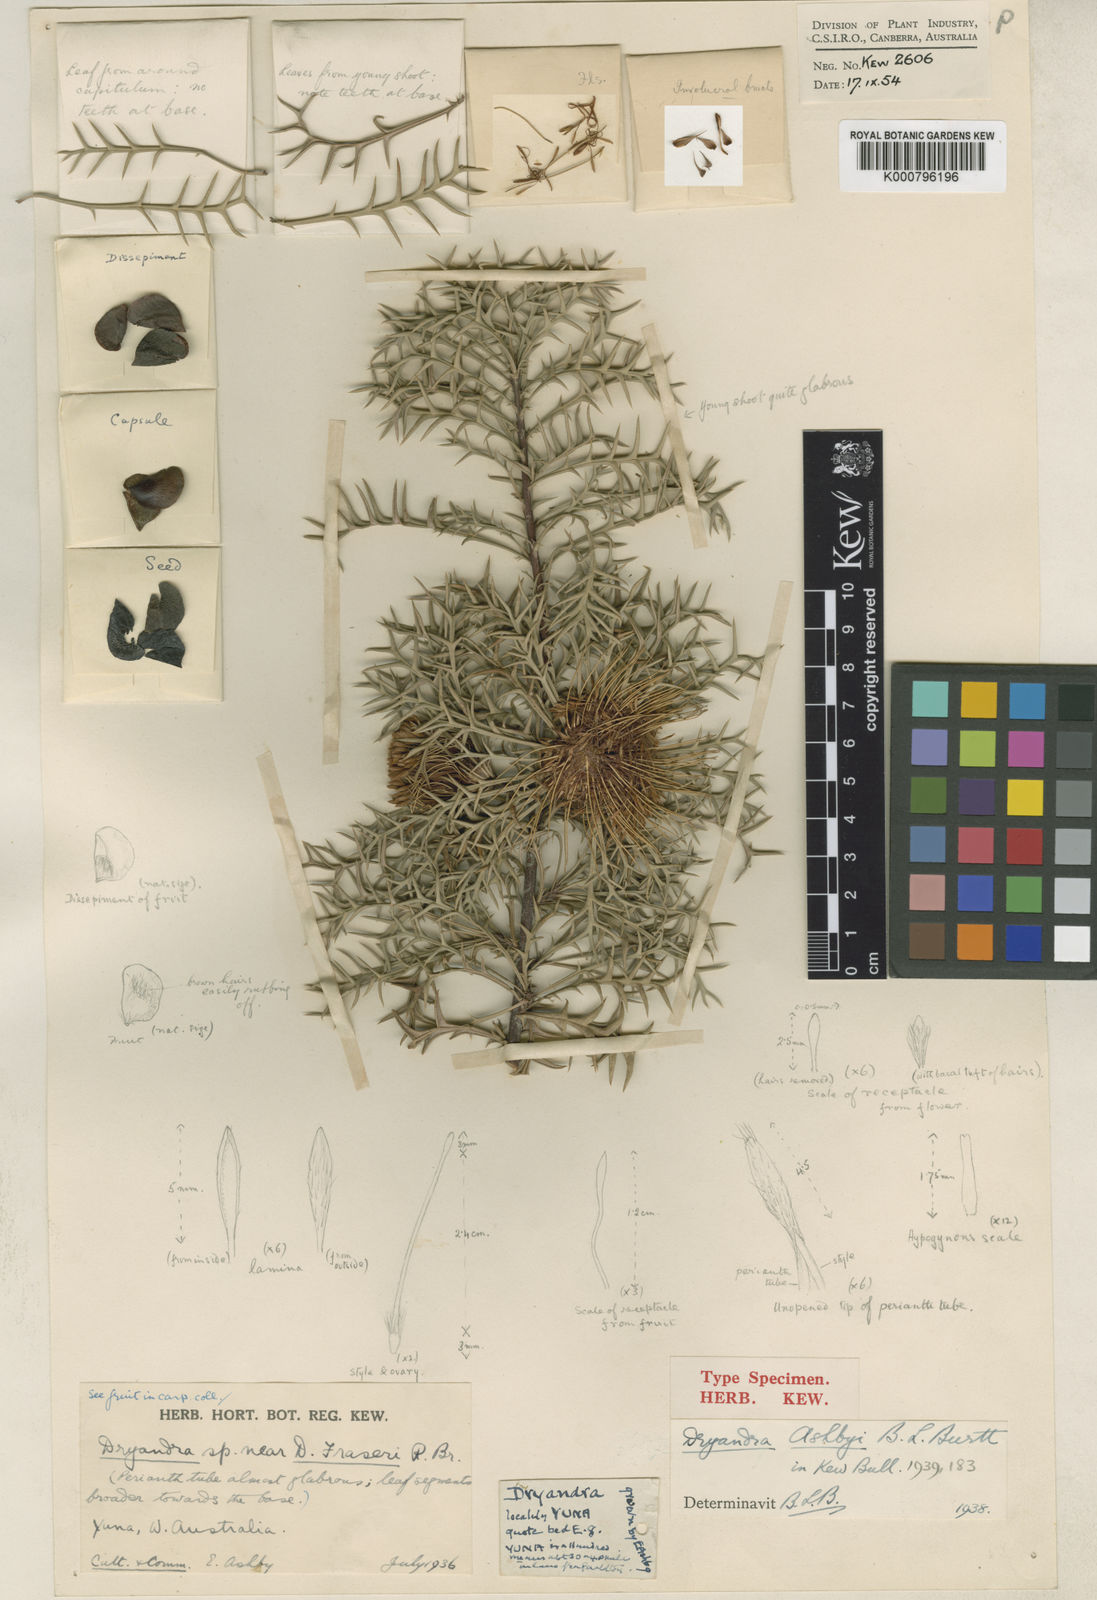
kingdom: Plantae
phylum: Tracheophyta
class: Magnoliopsida
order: Proteales
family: Proteaceae
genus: Banksia
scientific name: Banksia fraseri
